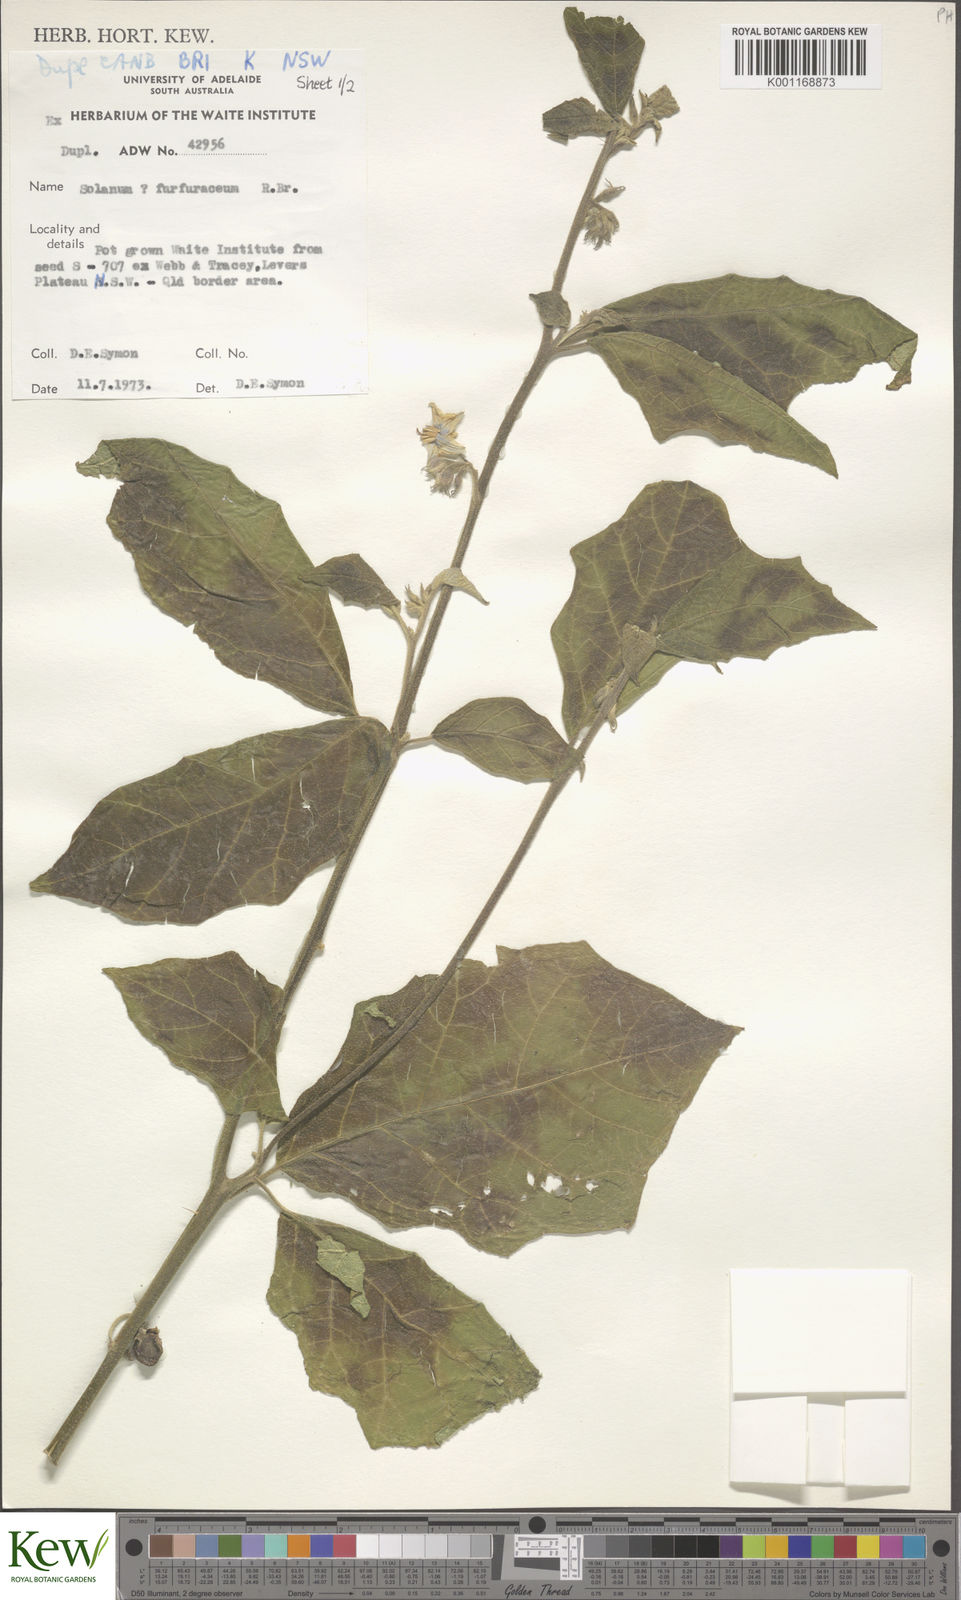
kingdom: Plantae
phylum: Tracheophyta
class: Magnoliopsida
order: Solanales
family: Solanaceae
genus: Solanum
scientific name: Solanum furfuraceum
